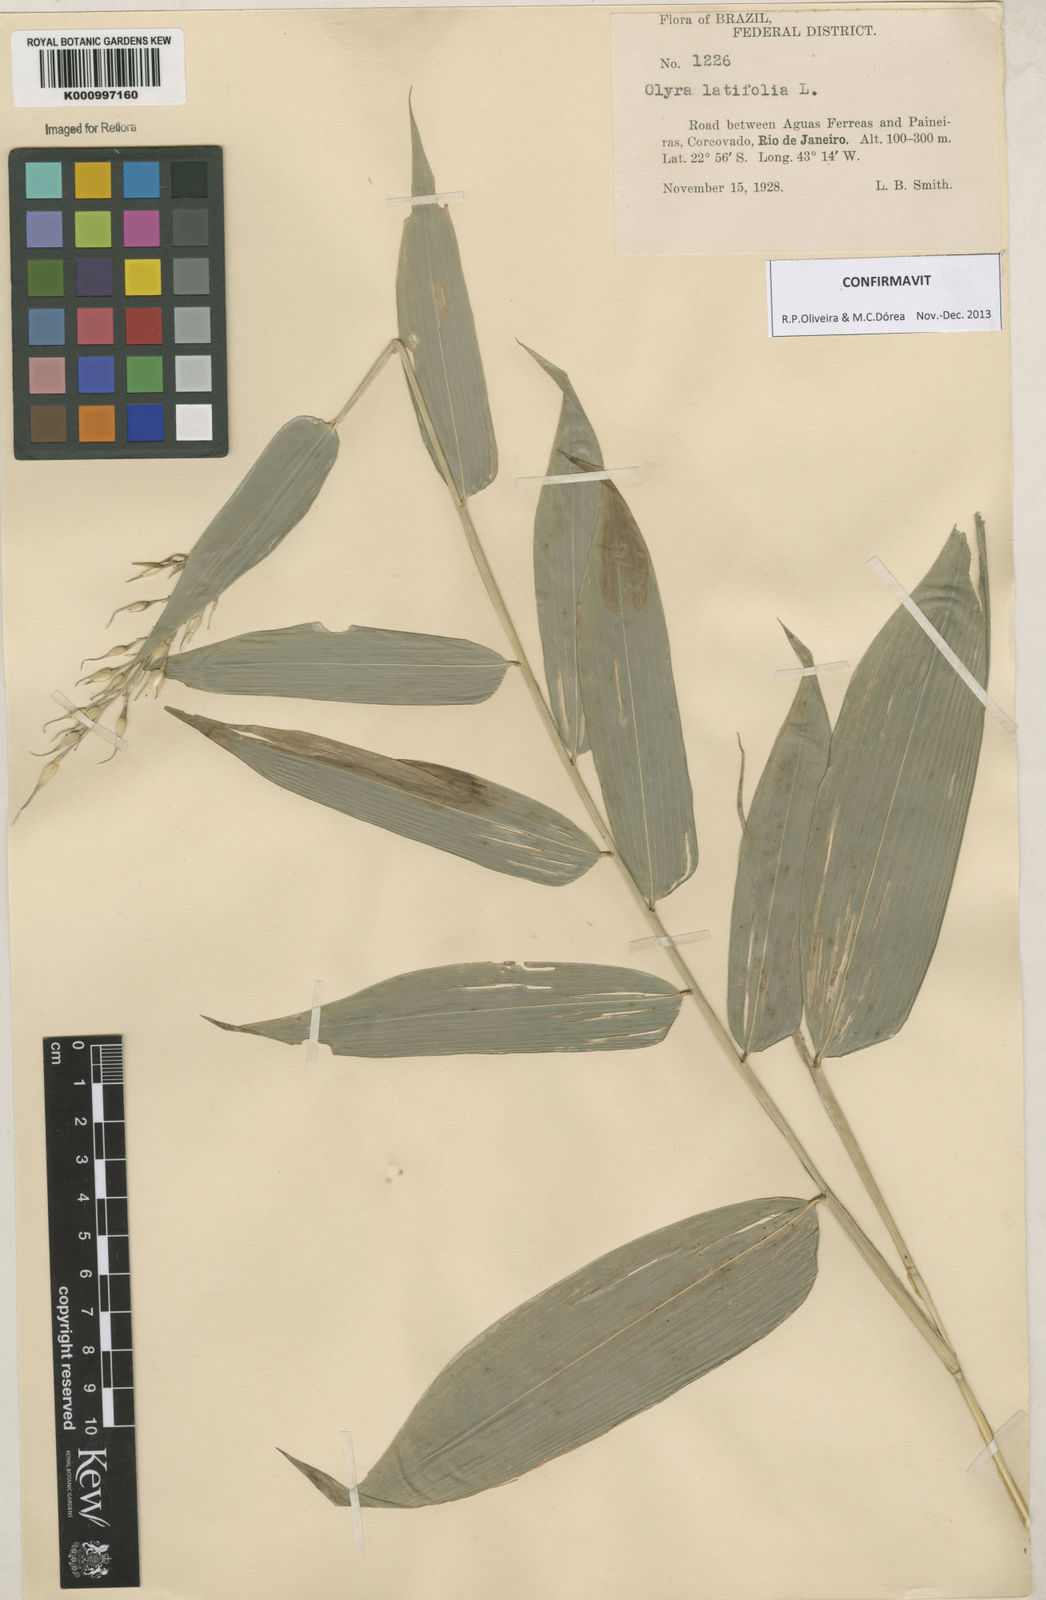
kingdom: Plantae
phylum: Tracheophyta
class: Liliopsida
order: Poales
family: Poaceae
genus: Olyra
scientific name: Olyra latifolia
